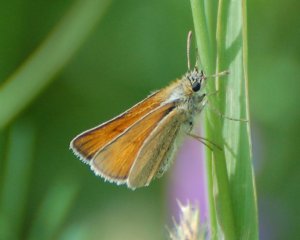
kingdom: Animalia
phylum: Arthropoda
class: Insecta
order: Lepidoptera
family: Hesperiidae
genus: Thymelicus
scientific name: Thymelicus lineola
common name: European Skipper
